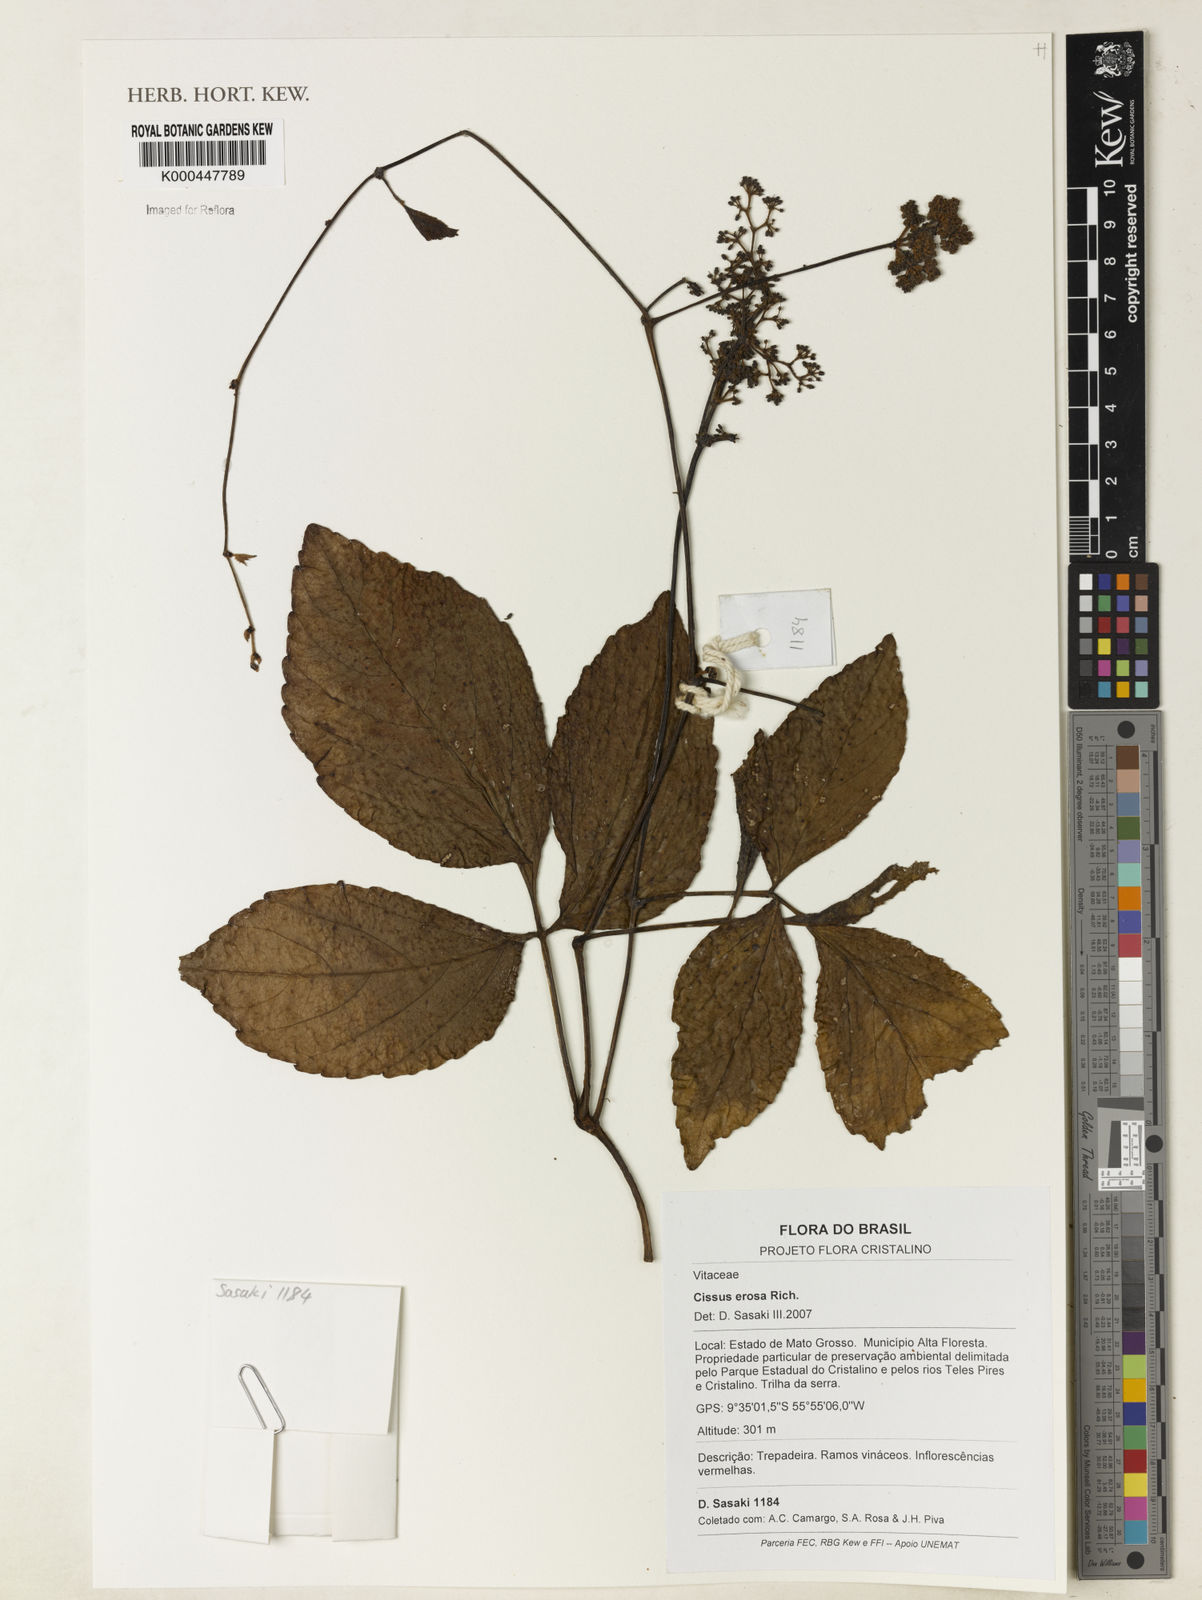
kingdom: Plantae
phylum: Tracheophyta
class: Magnoliopsida
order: Vitales
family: Vitaceae
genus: Cissus
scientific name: Cissus erosa
